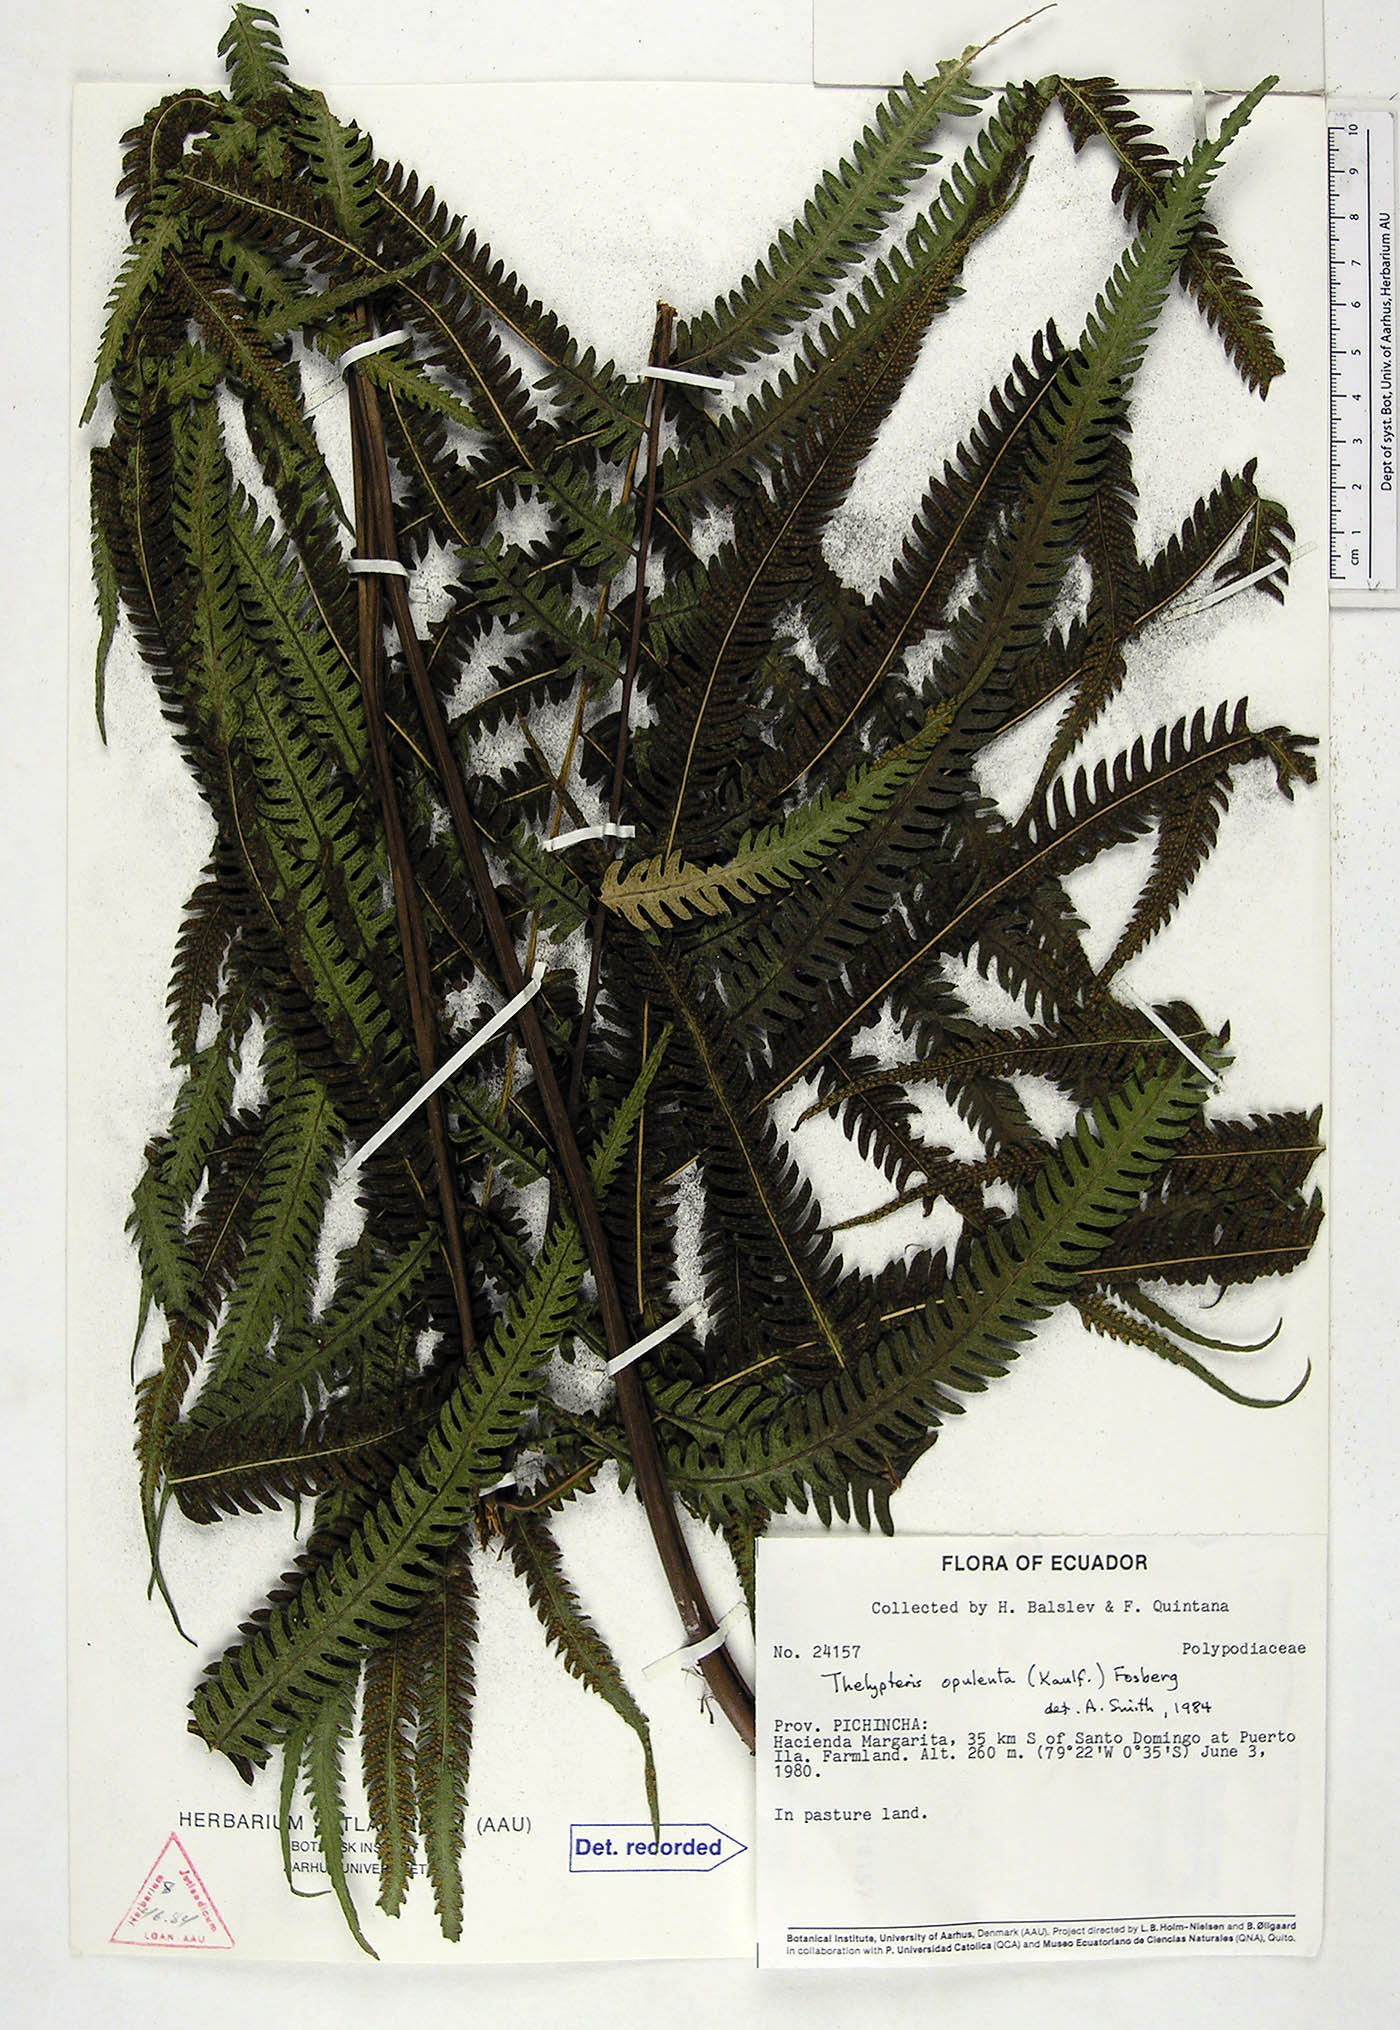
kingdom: Plantae
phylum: Tracheophyta
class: Polypodiopsida
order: Polypodiales
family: Thelypteridaceae
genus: Amblovenatum
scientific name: Amblovenatum opulentum
